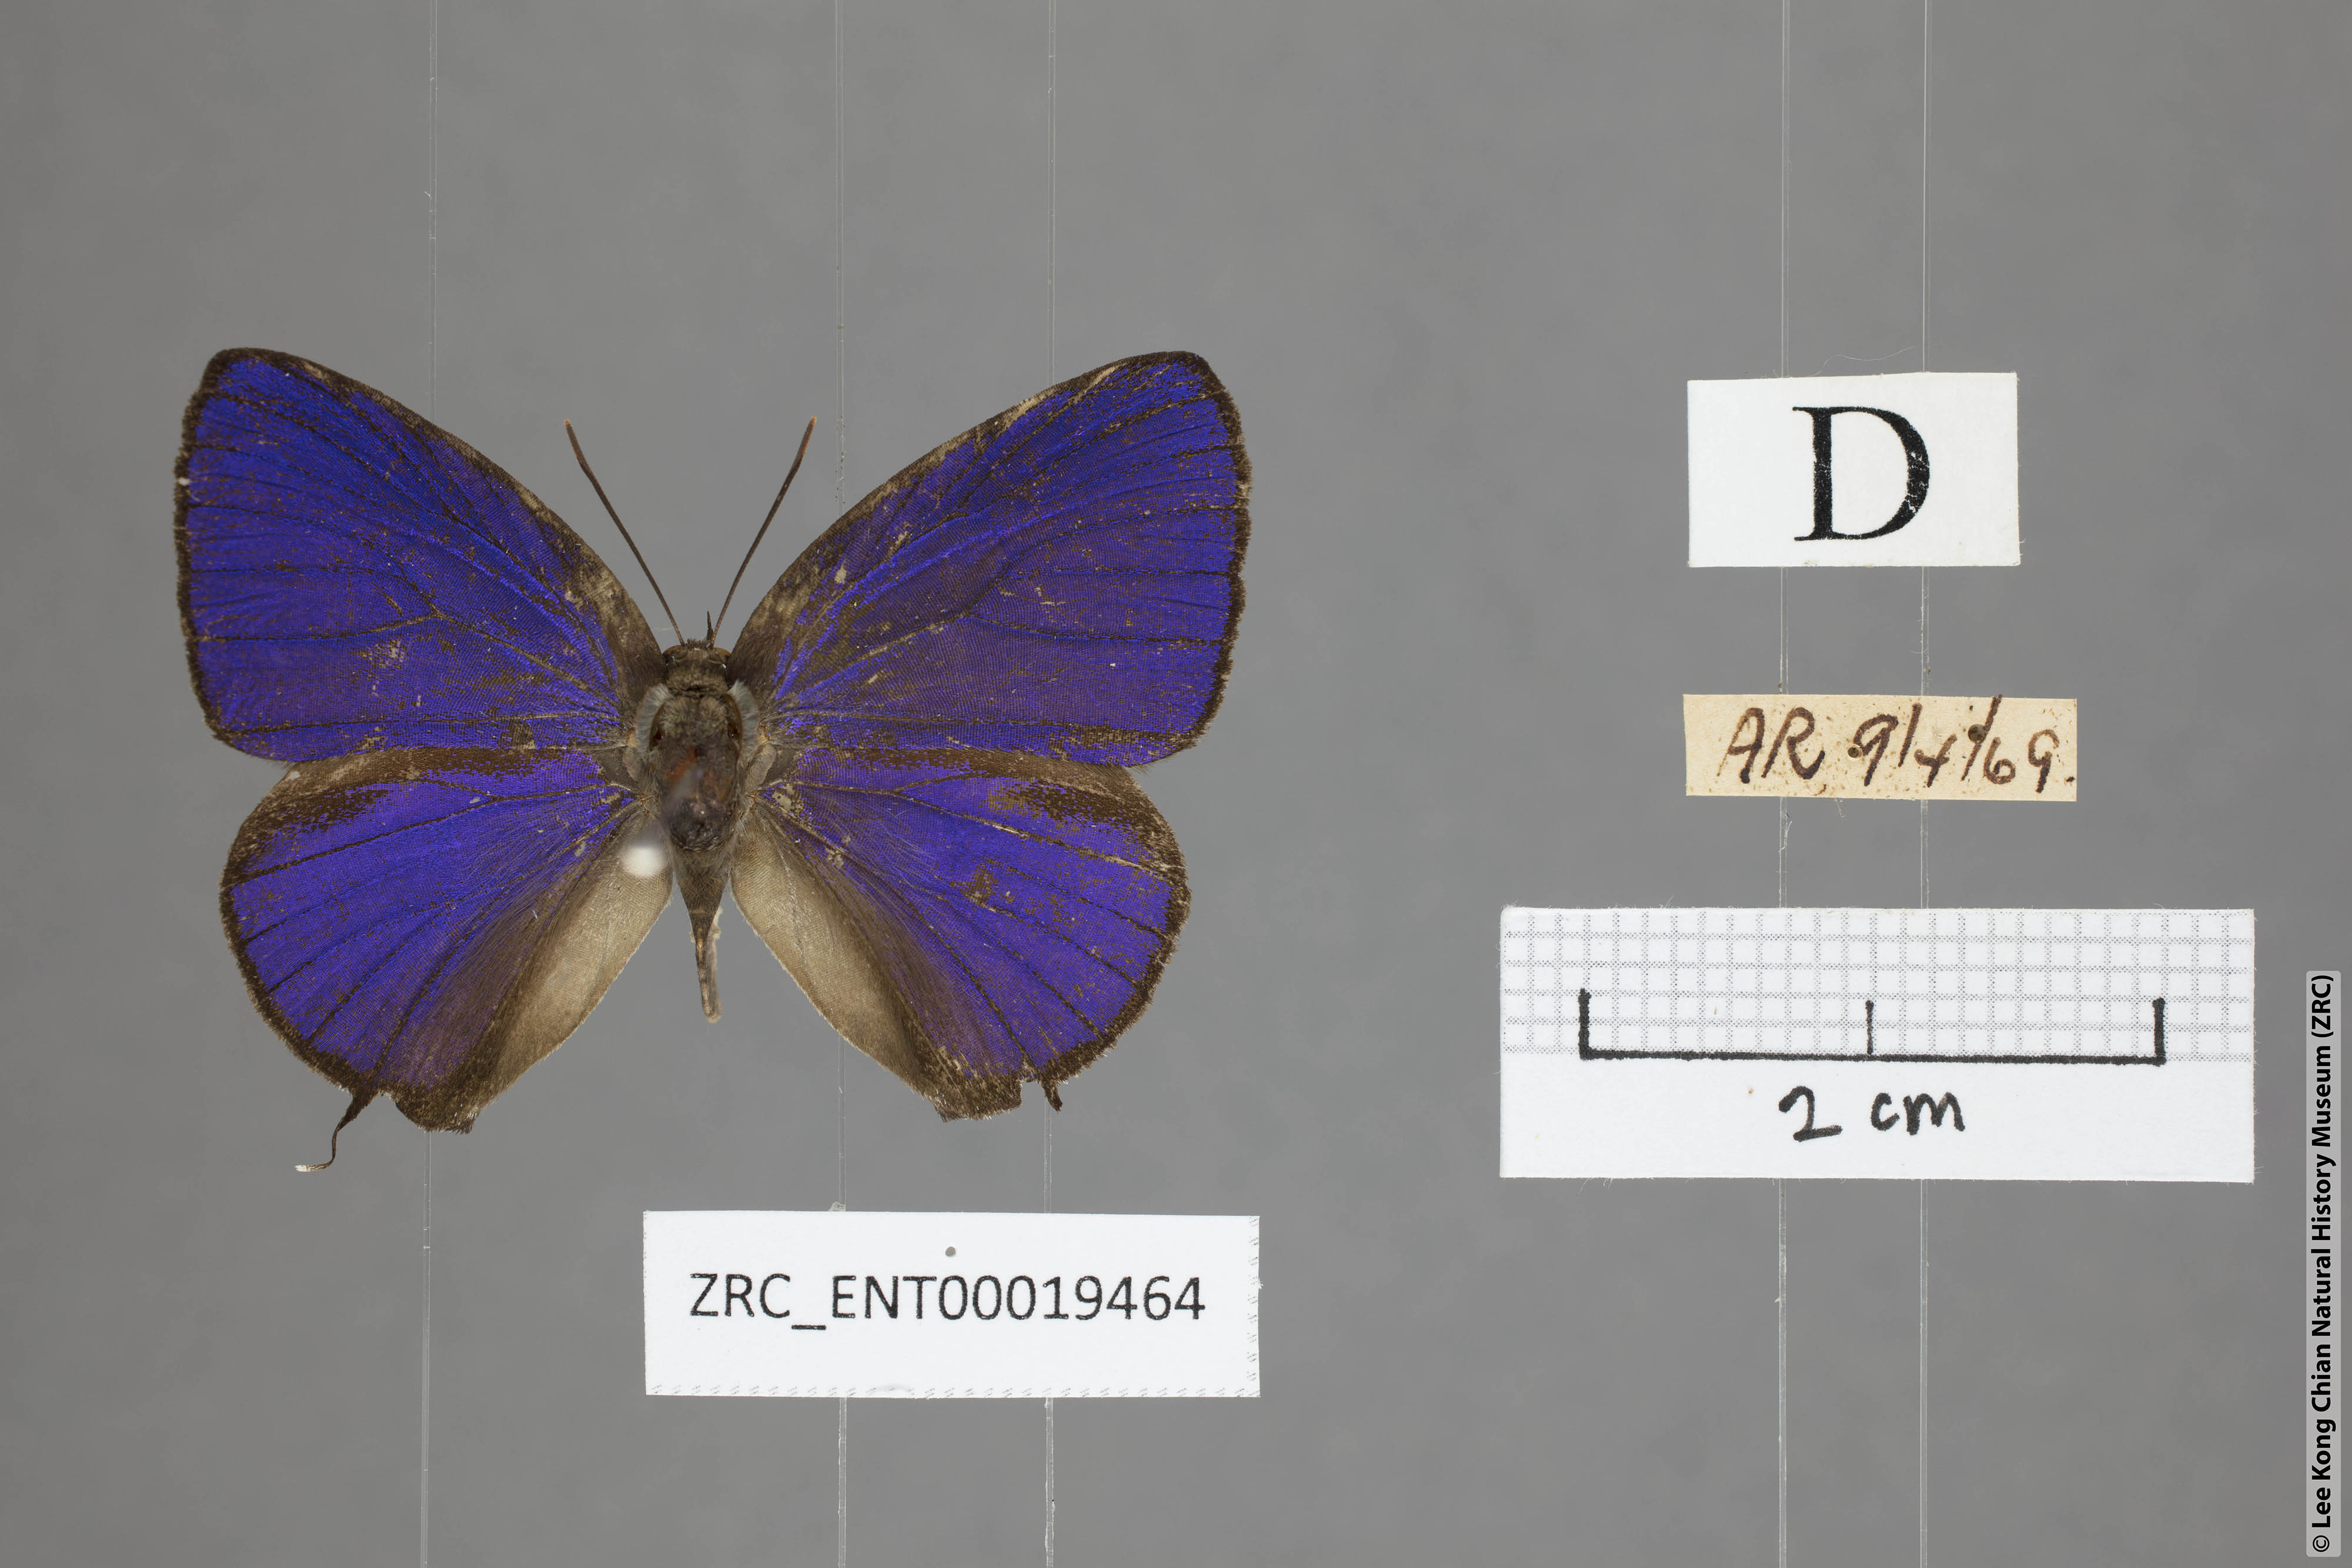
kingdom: Animalia
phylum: Arthropoda
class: Insecta
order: Lepidoptera
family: Lycaenidae
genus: Arhopala
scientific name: Arhopala azinis
